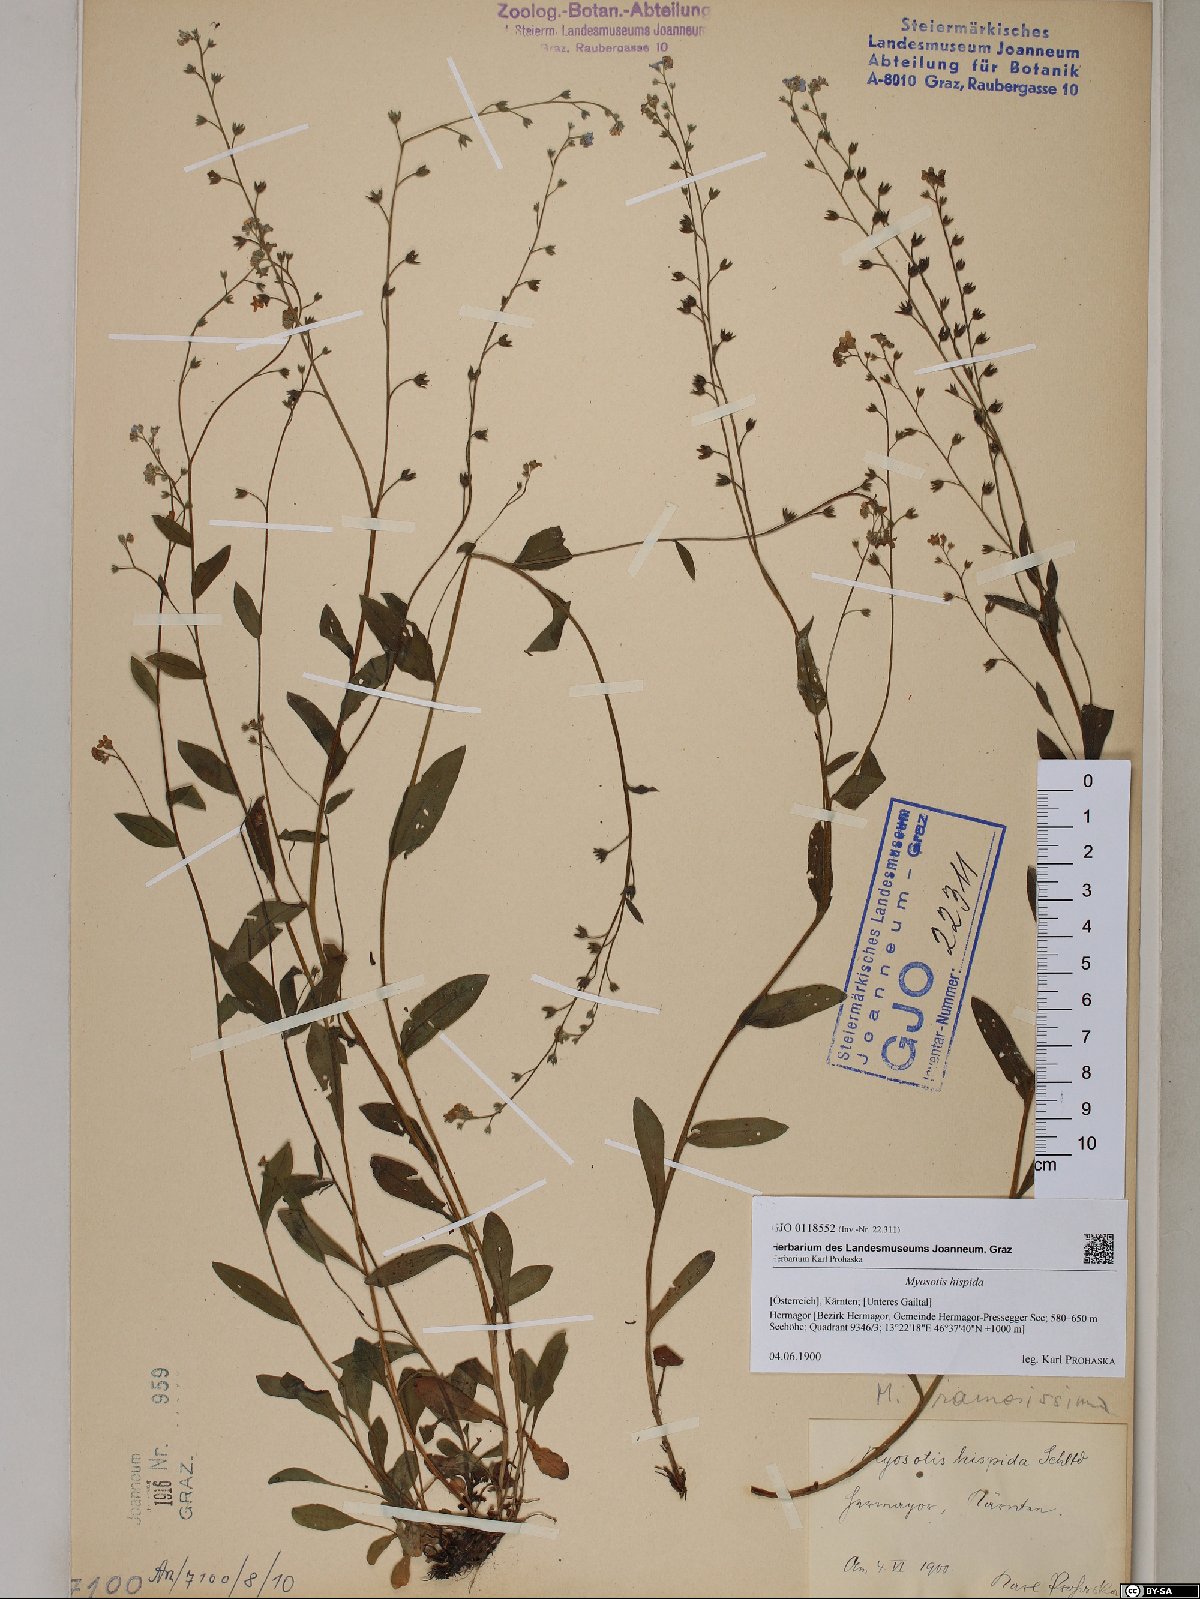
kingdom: Plantae
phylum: Tracheophyta
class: Magnoliopsida
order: Boraginales
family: Boraginaceae
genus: Myosotis
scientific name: Myosotis ramosissima
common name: Early forget-me-not
